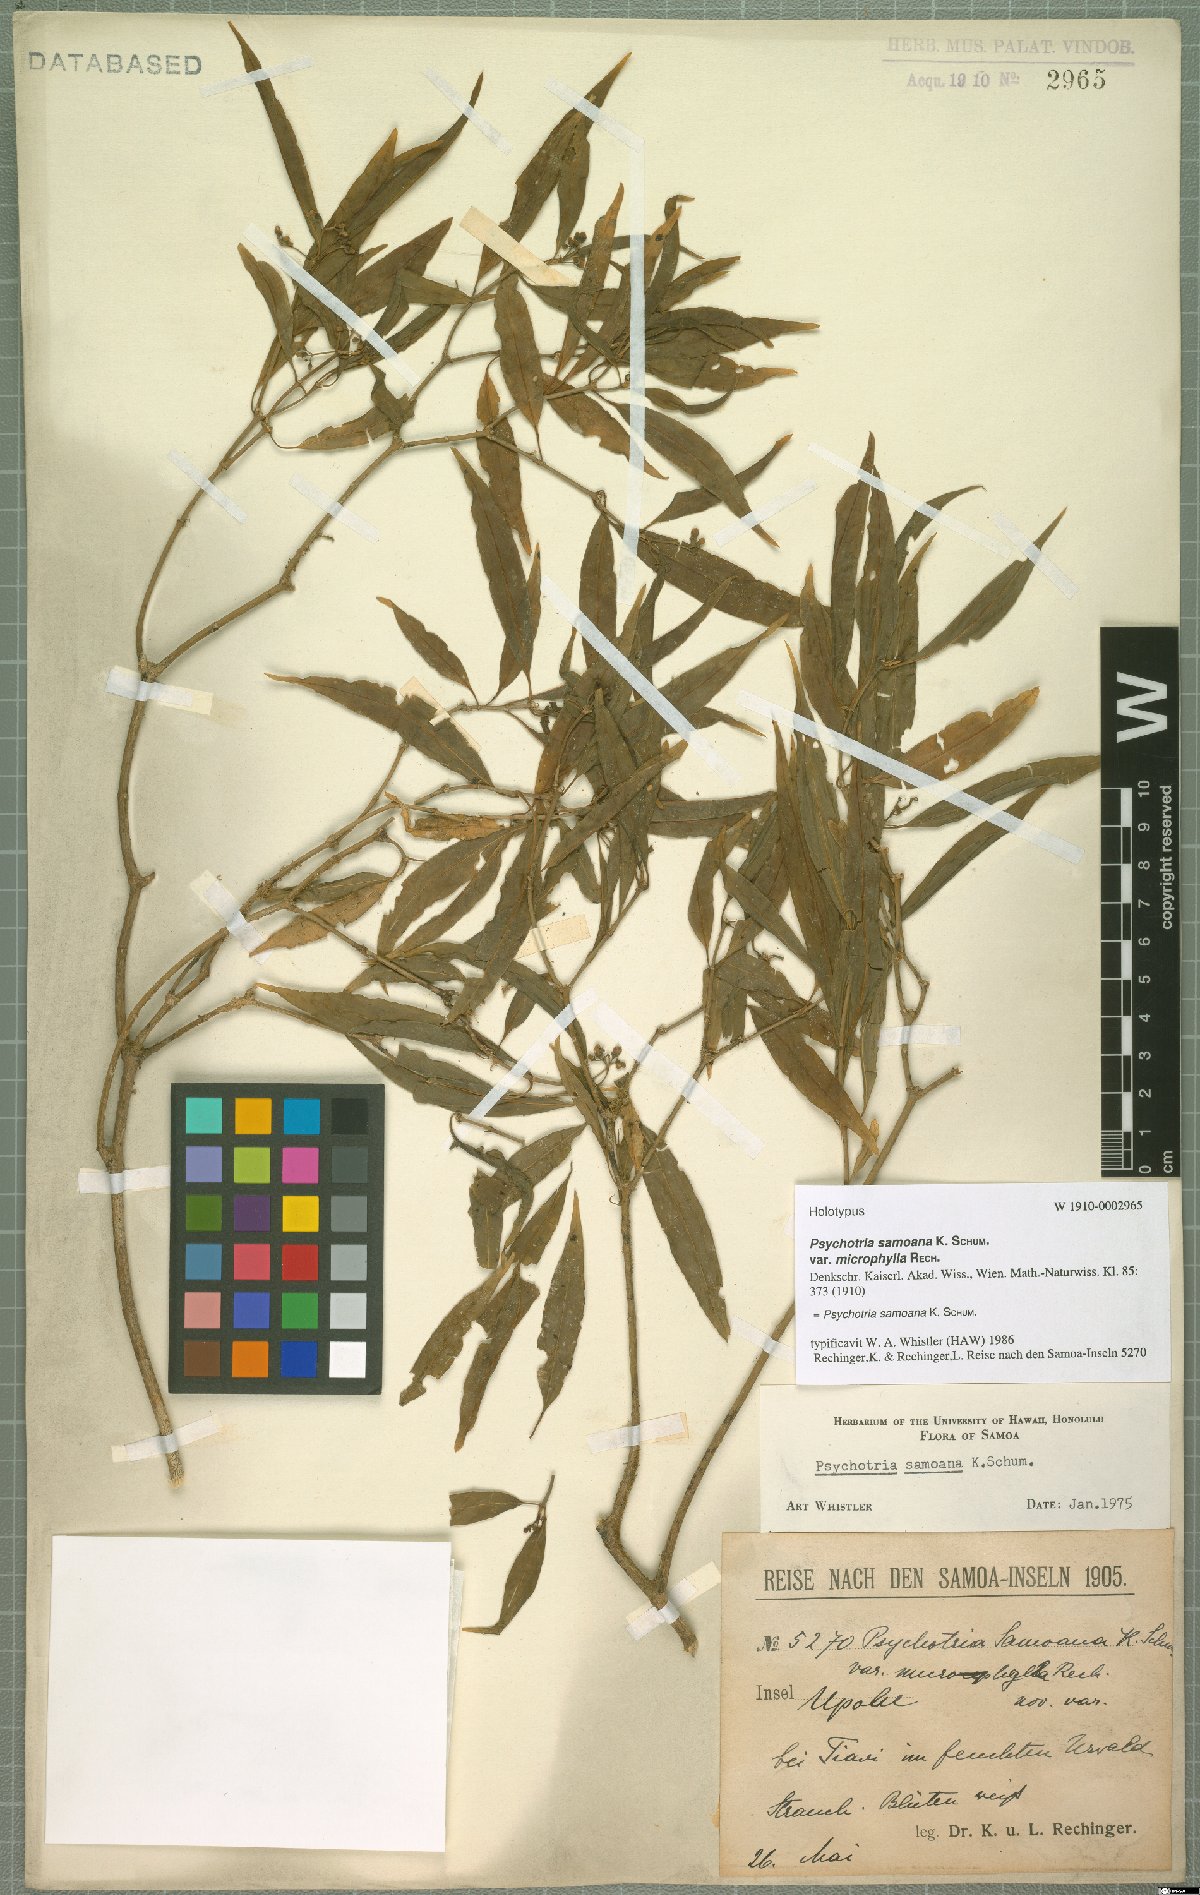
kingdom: Plantae
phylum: Tracheophyta
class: Magnoliopsida
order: Gentianales
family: Rubiaceae
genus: Eumachia
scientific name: Eumachia samoana
